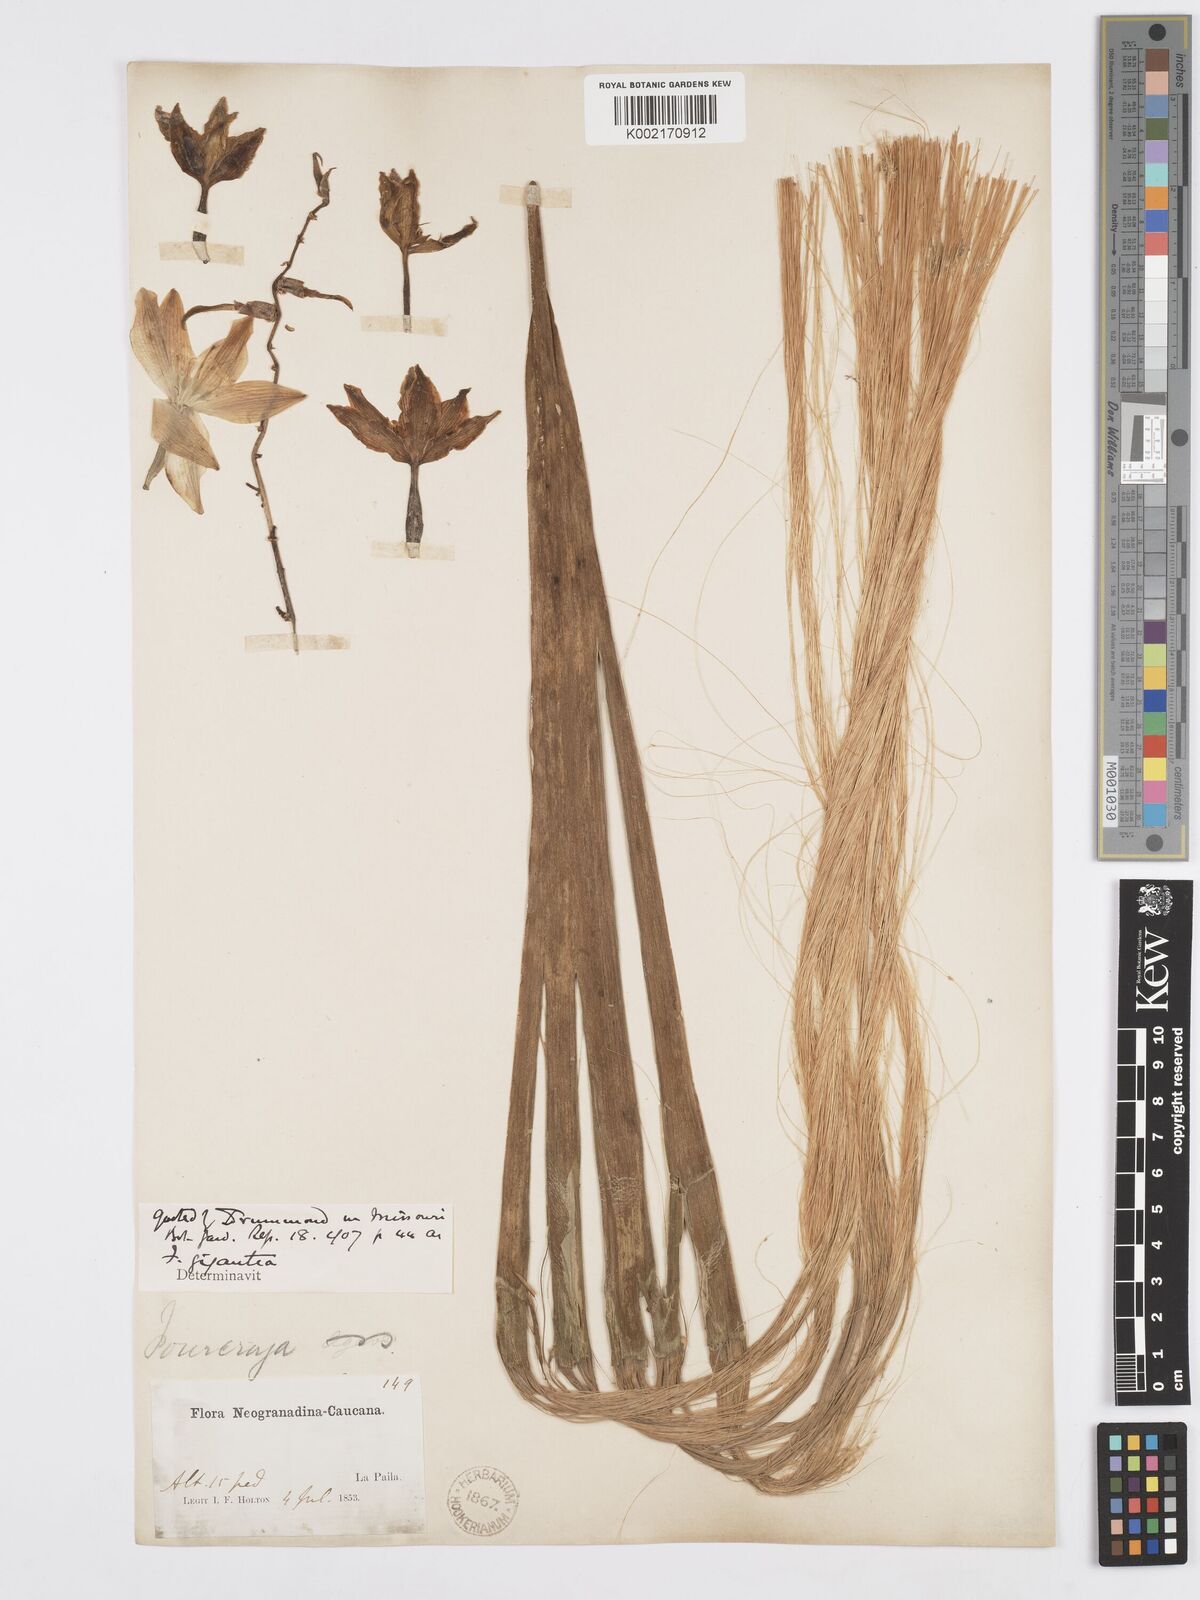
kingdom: Plantae
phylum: Tracheophyta
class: Liliopsida
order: Asparagales
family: Asparagaceae
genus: Furcraea
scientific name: Furcraea foetida
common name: Mauritius hemp
